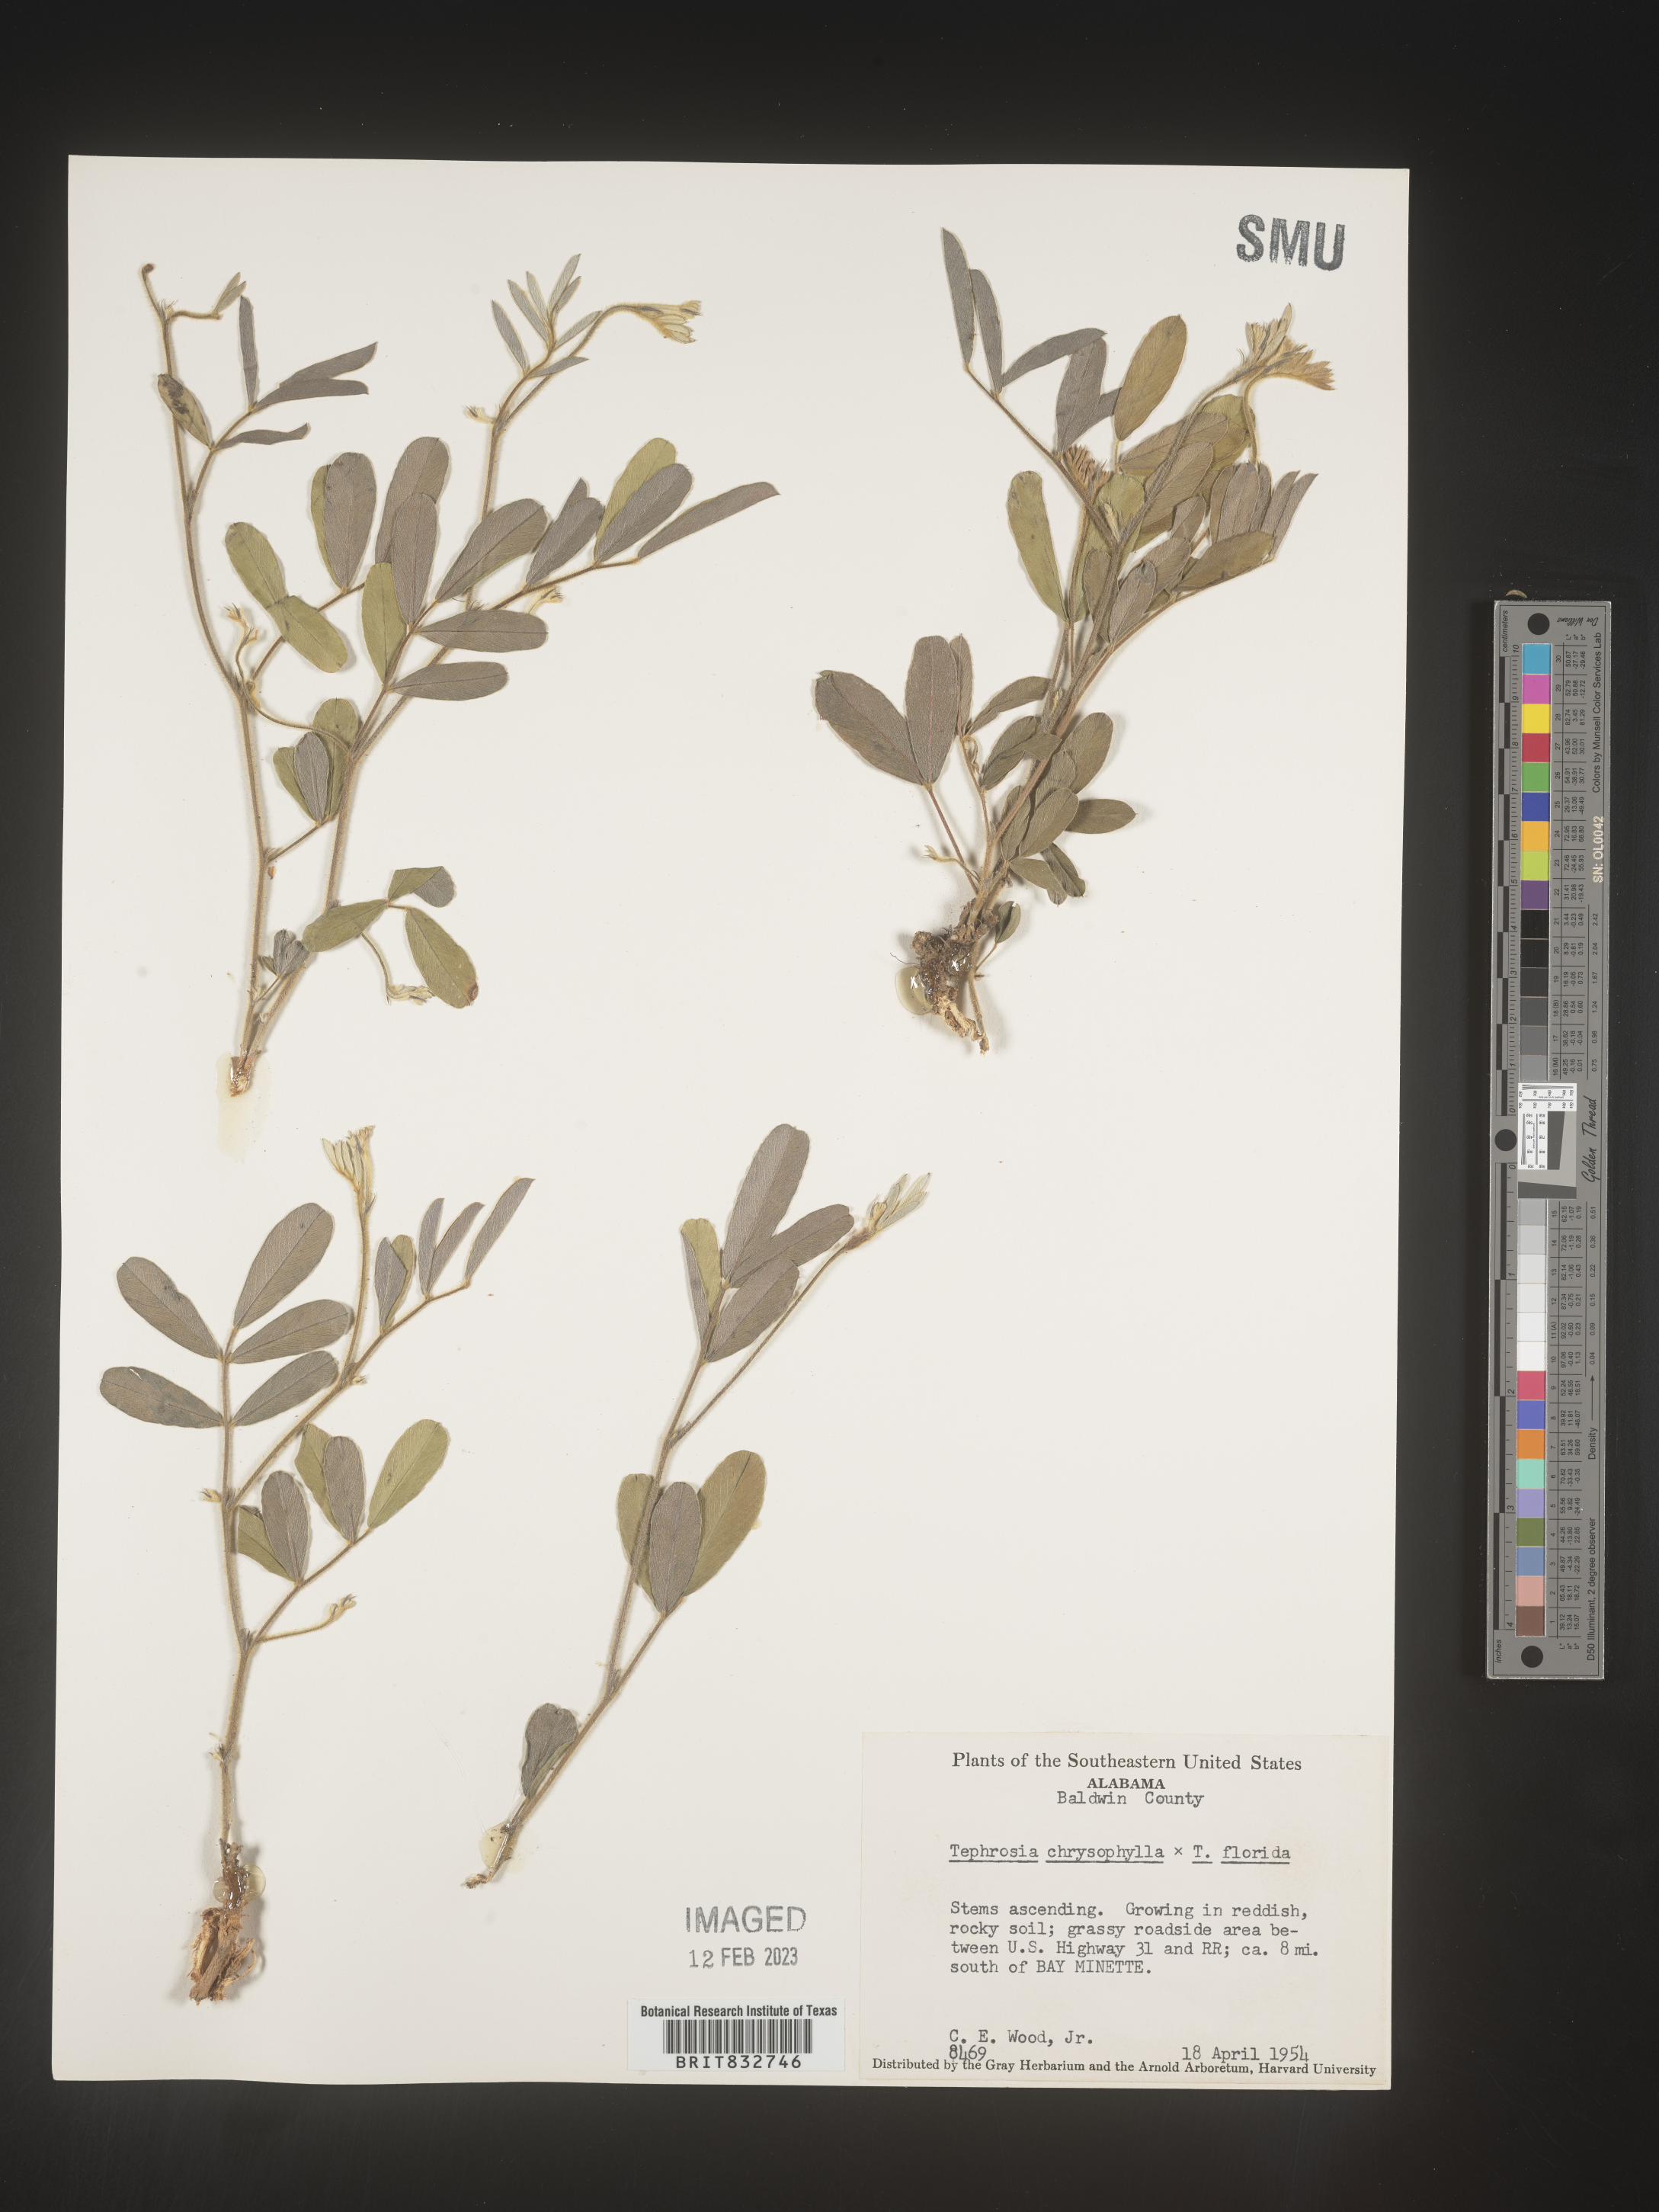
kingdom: Plantae
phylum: Tracheophyta
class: Magnoliopsida
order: Fabales
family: Fabaceae
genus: Tephrosia
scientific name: Tephrosia
